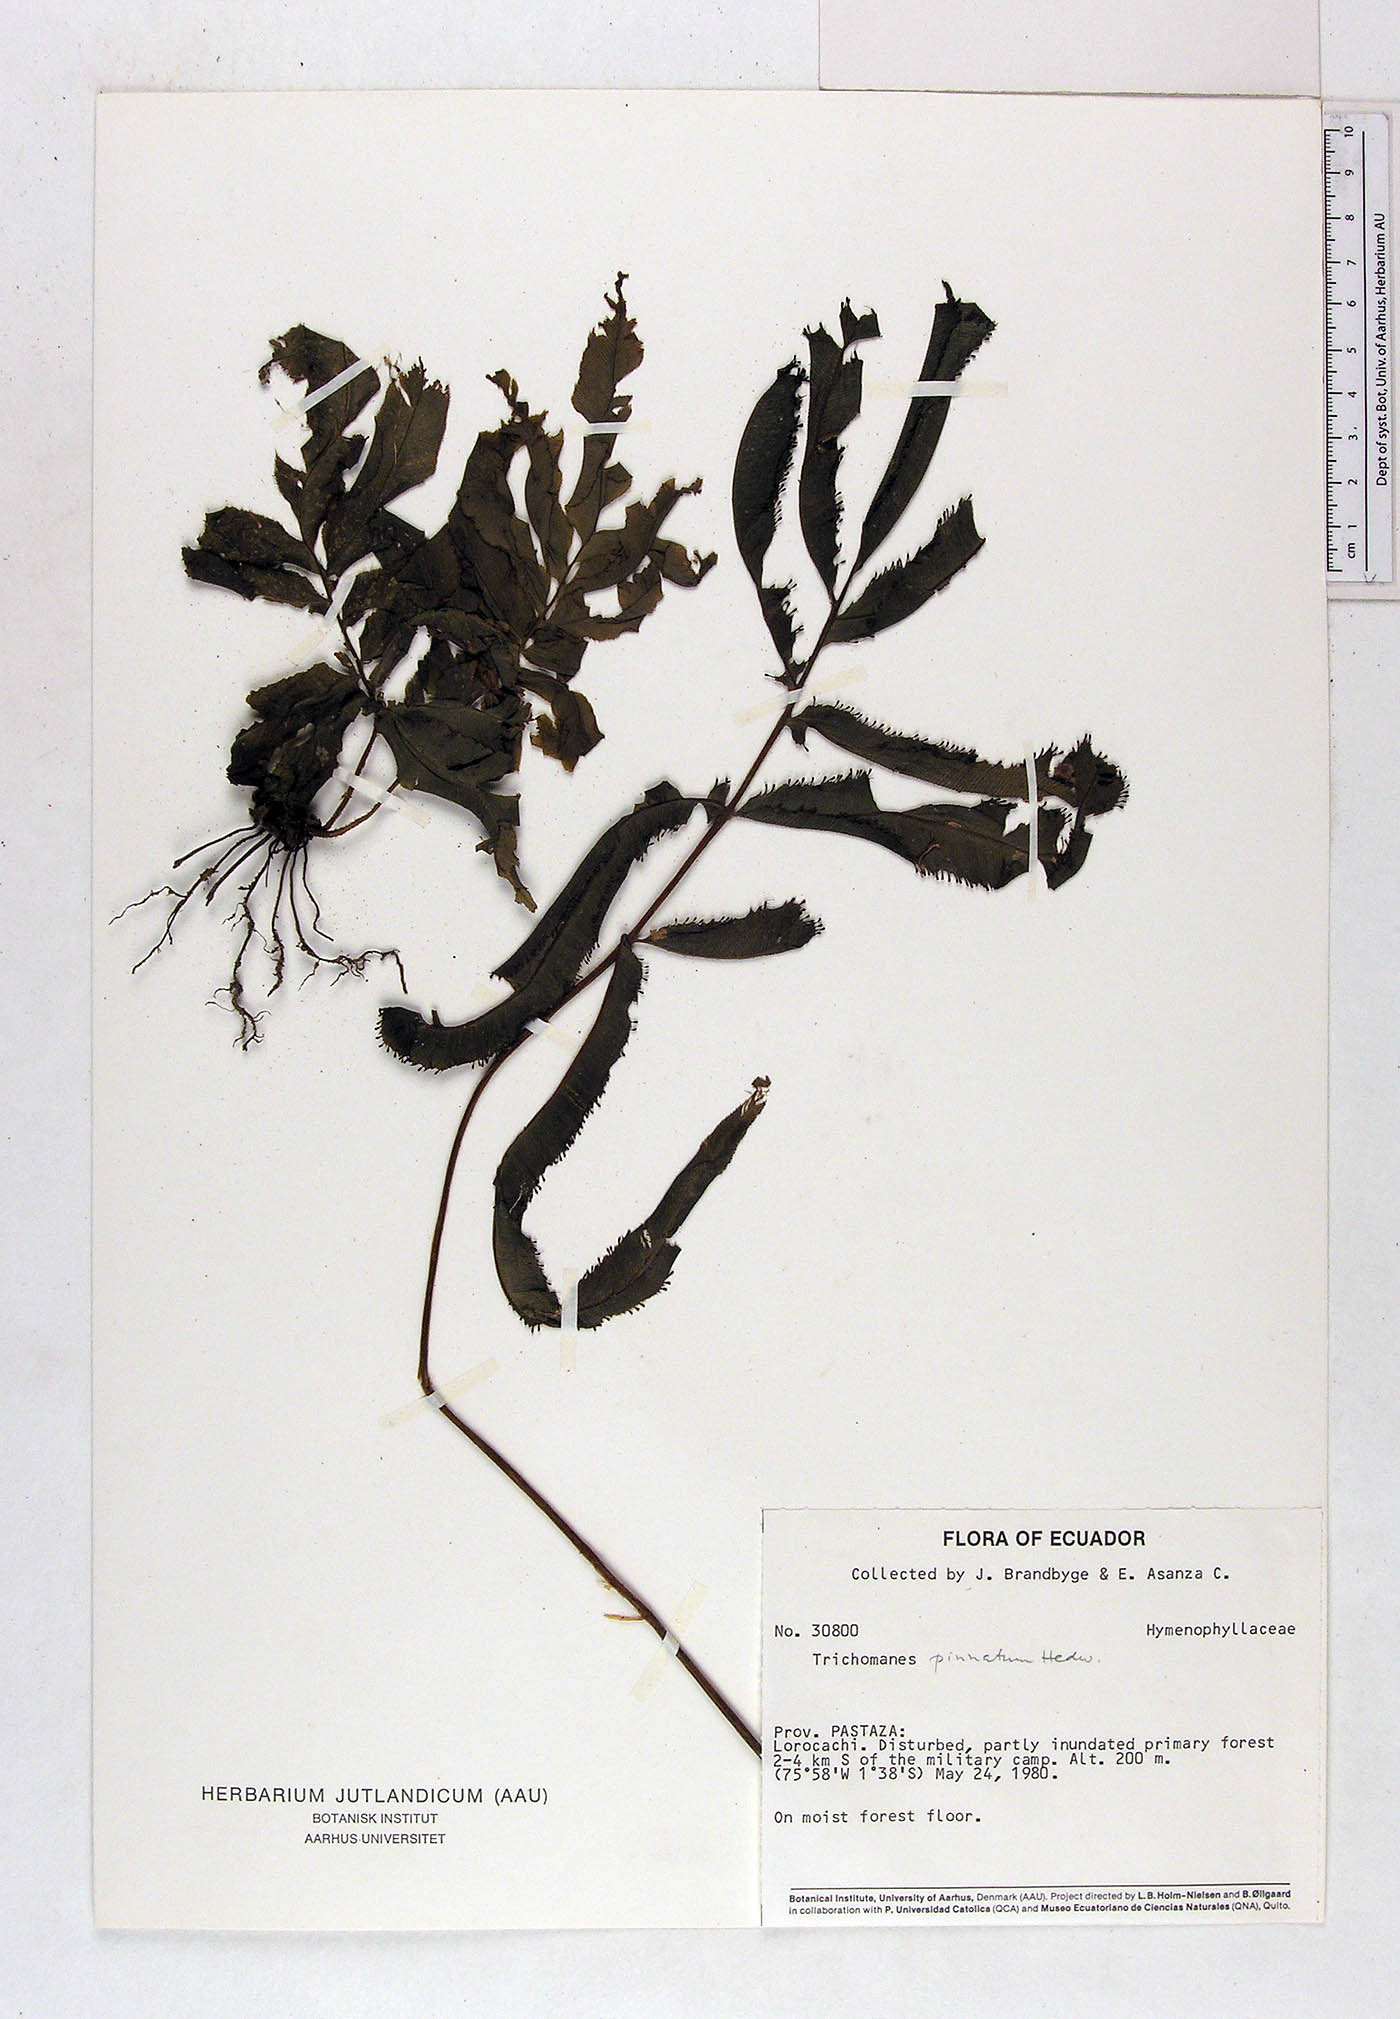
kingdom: Plantae
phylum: Tracheophyta
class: Polypodiopsida
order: Hymenophyllales
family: Hymenophyllaceae
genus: Trichomanes
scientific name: Trichomanes pinnatum
